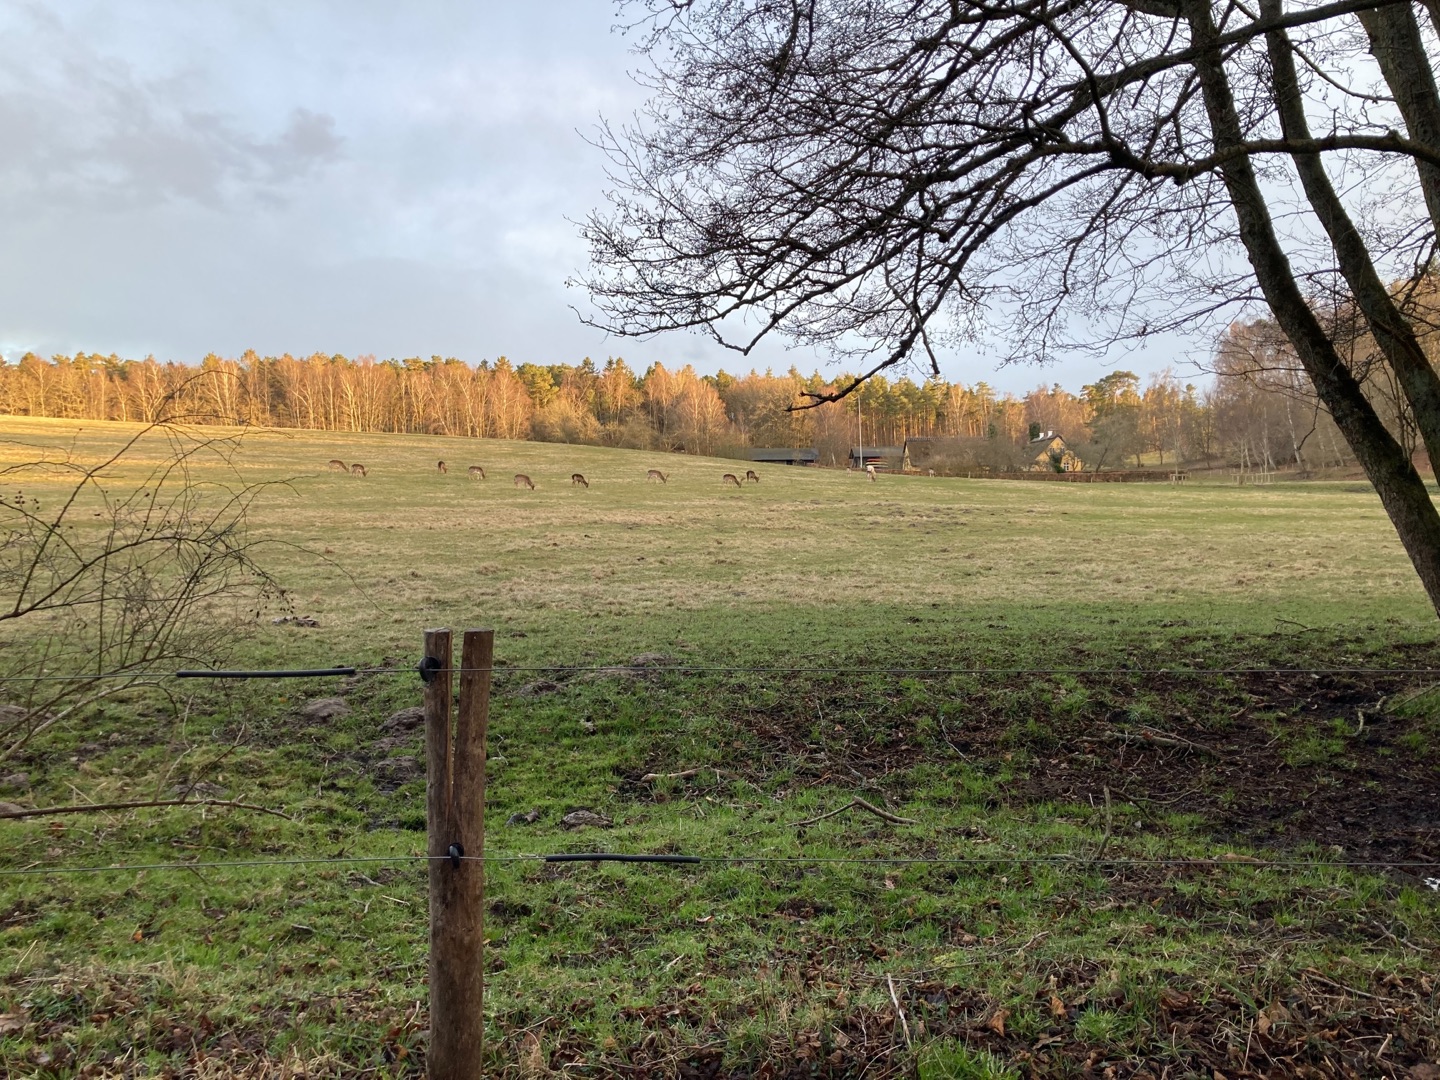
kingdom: Animalia
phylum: Chordata
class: Mammalia
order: Artiodactyla
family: Cervidae
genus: Dama
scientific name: Dama dama
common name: Dådyr
